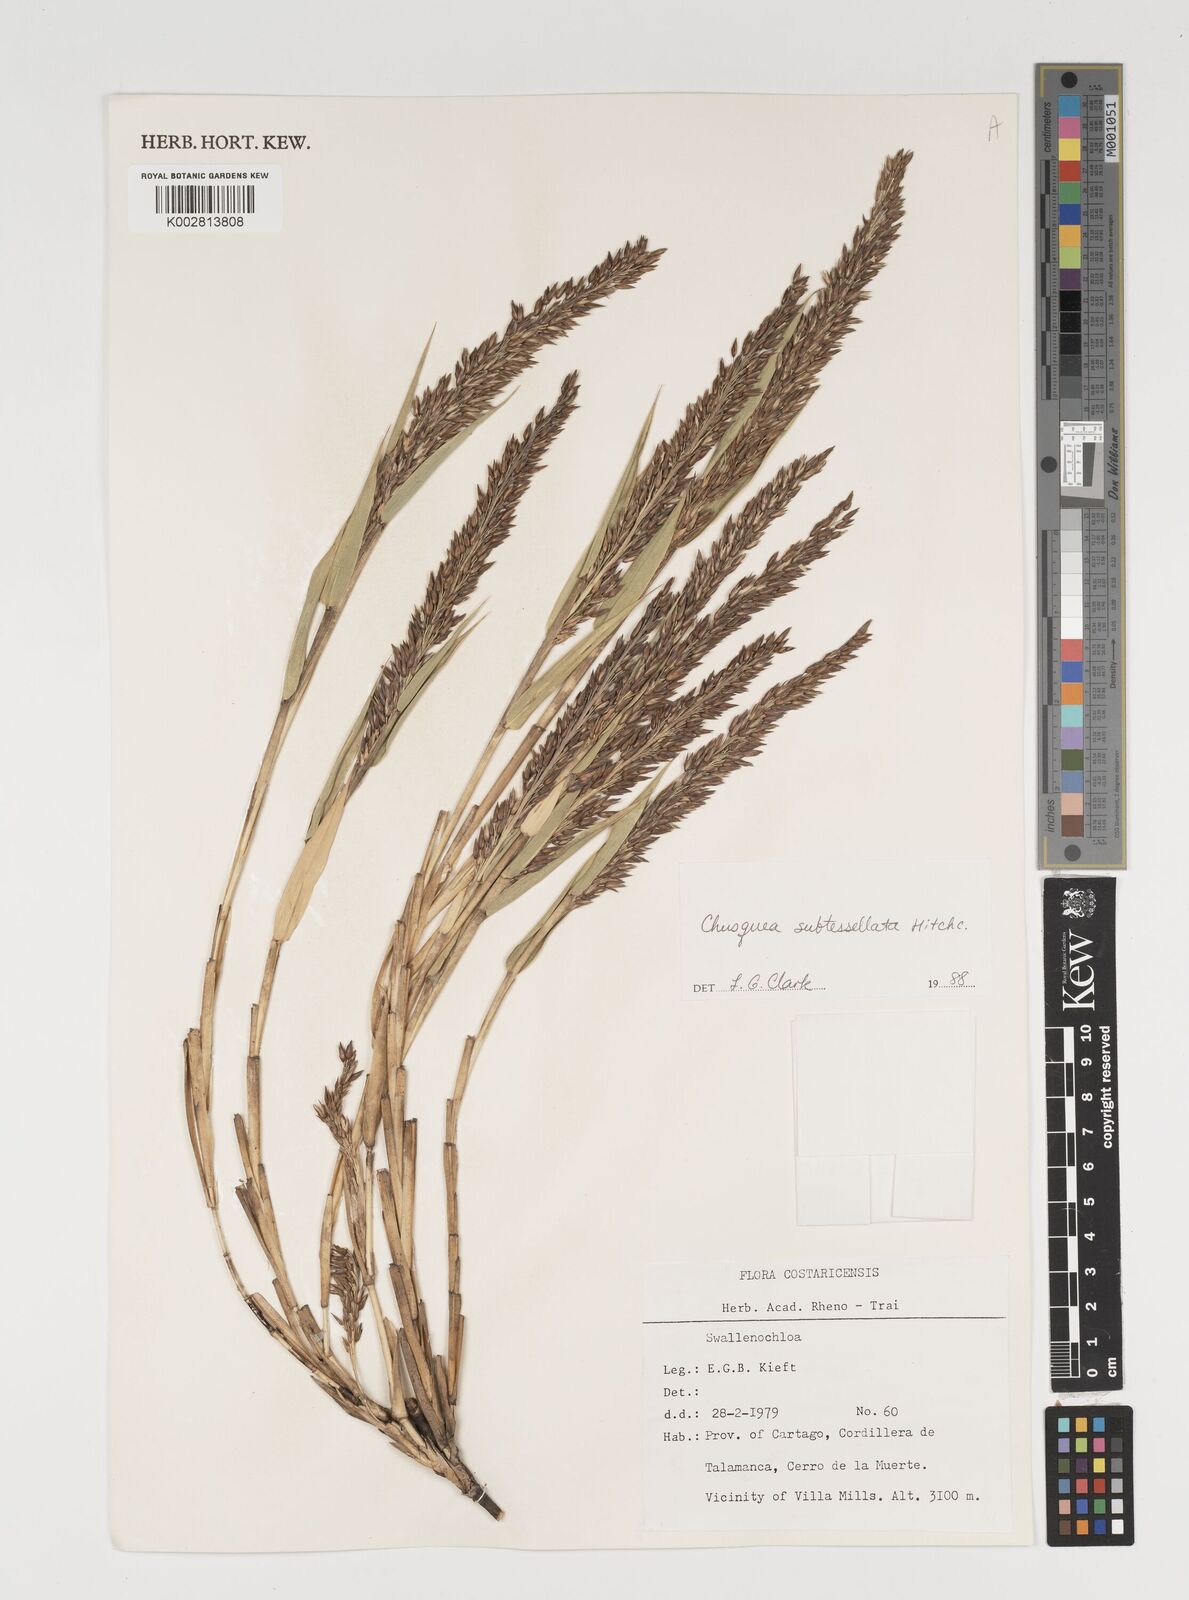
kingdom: Plantae
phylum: Tracheophyta
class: Liliopsida
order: Poales
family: Poaceae
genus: Chusquea
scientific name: Chusquea subtessellata
